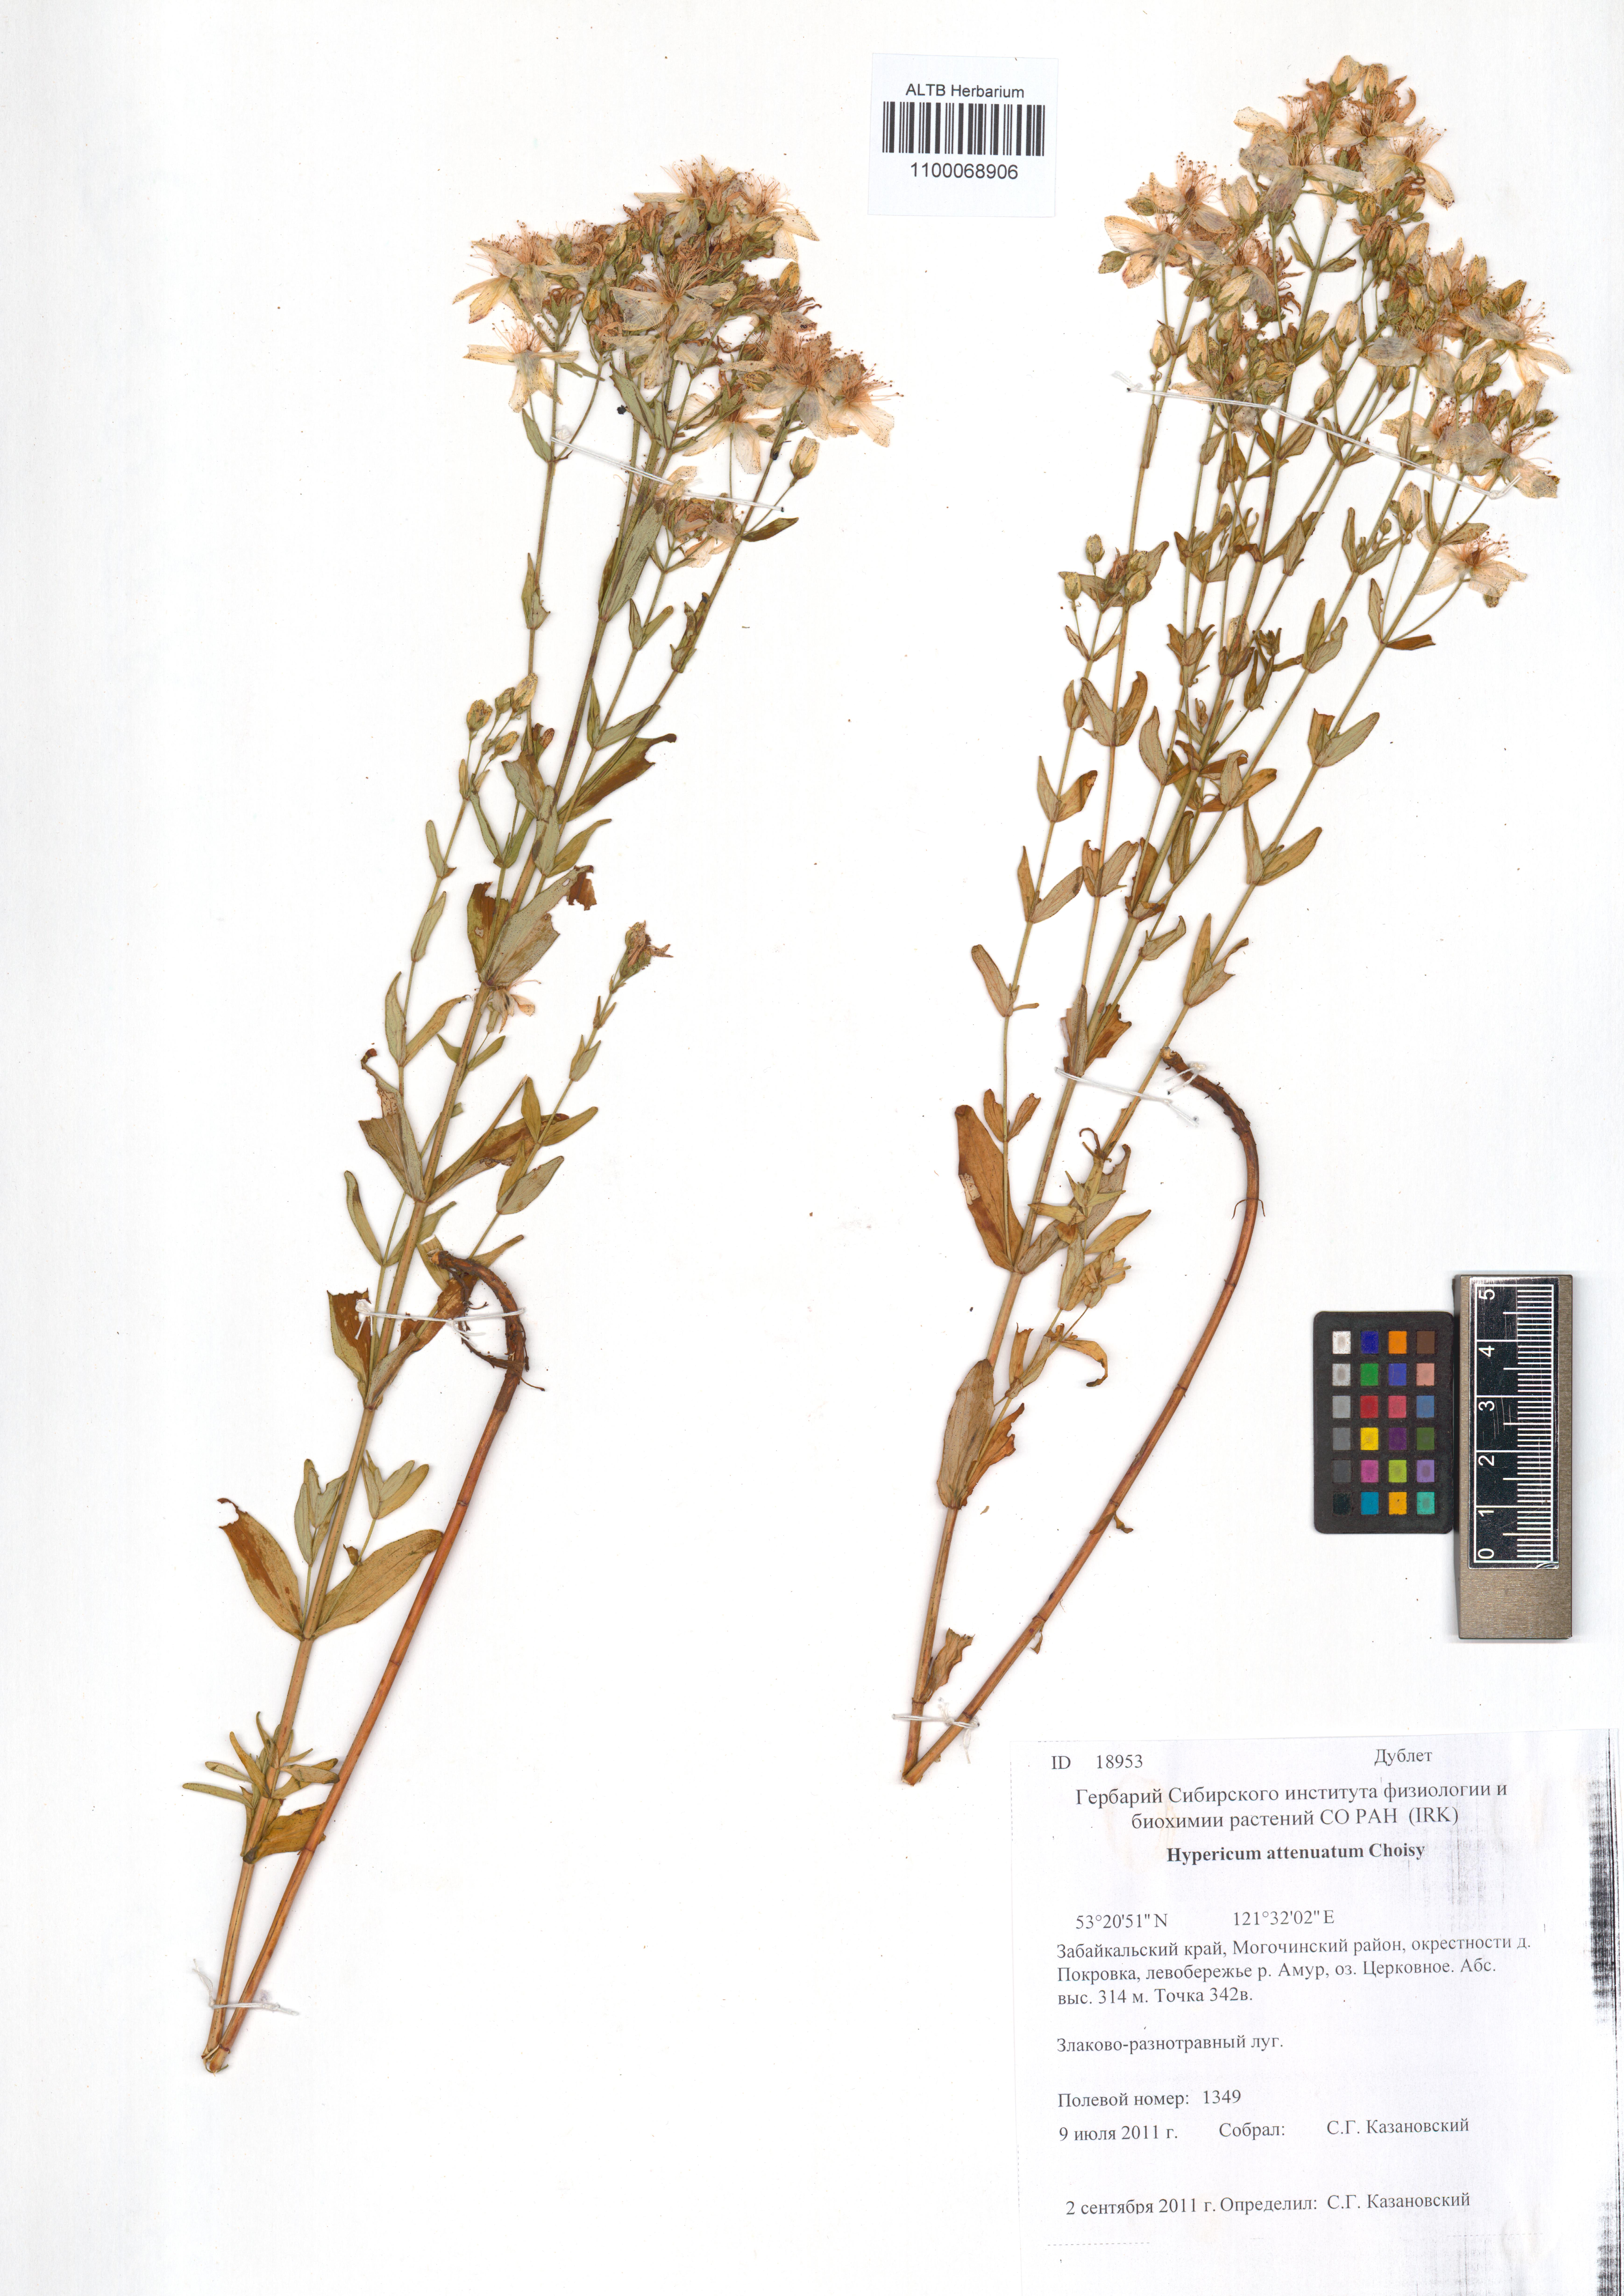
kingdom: Plantae
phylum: Tracheophyta
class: Magnoliopsida
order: Malpighiales
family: Hypericaceae
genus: Hypericum
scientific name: Hypericum attenuatum
